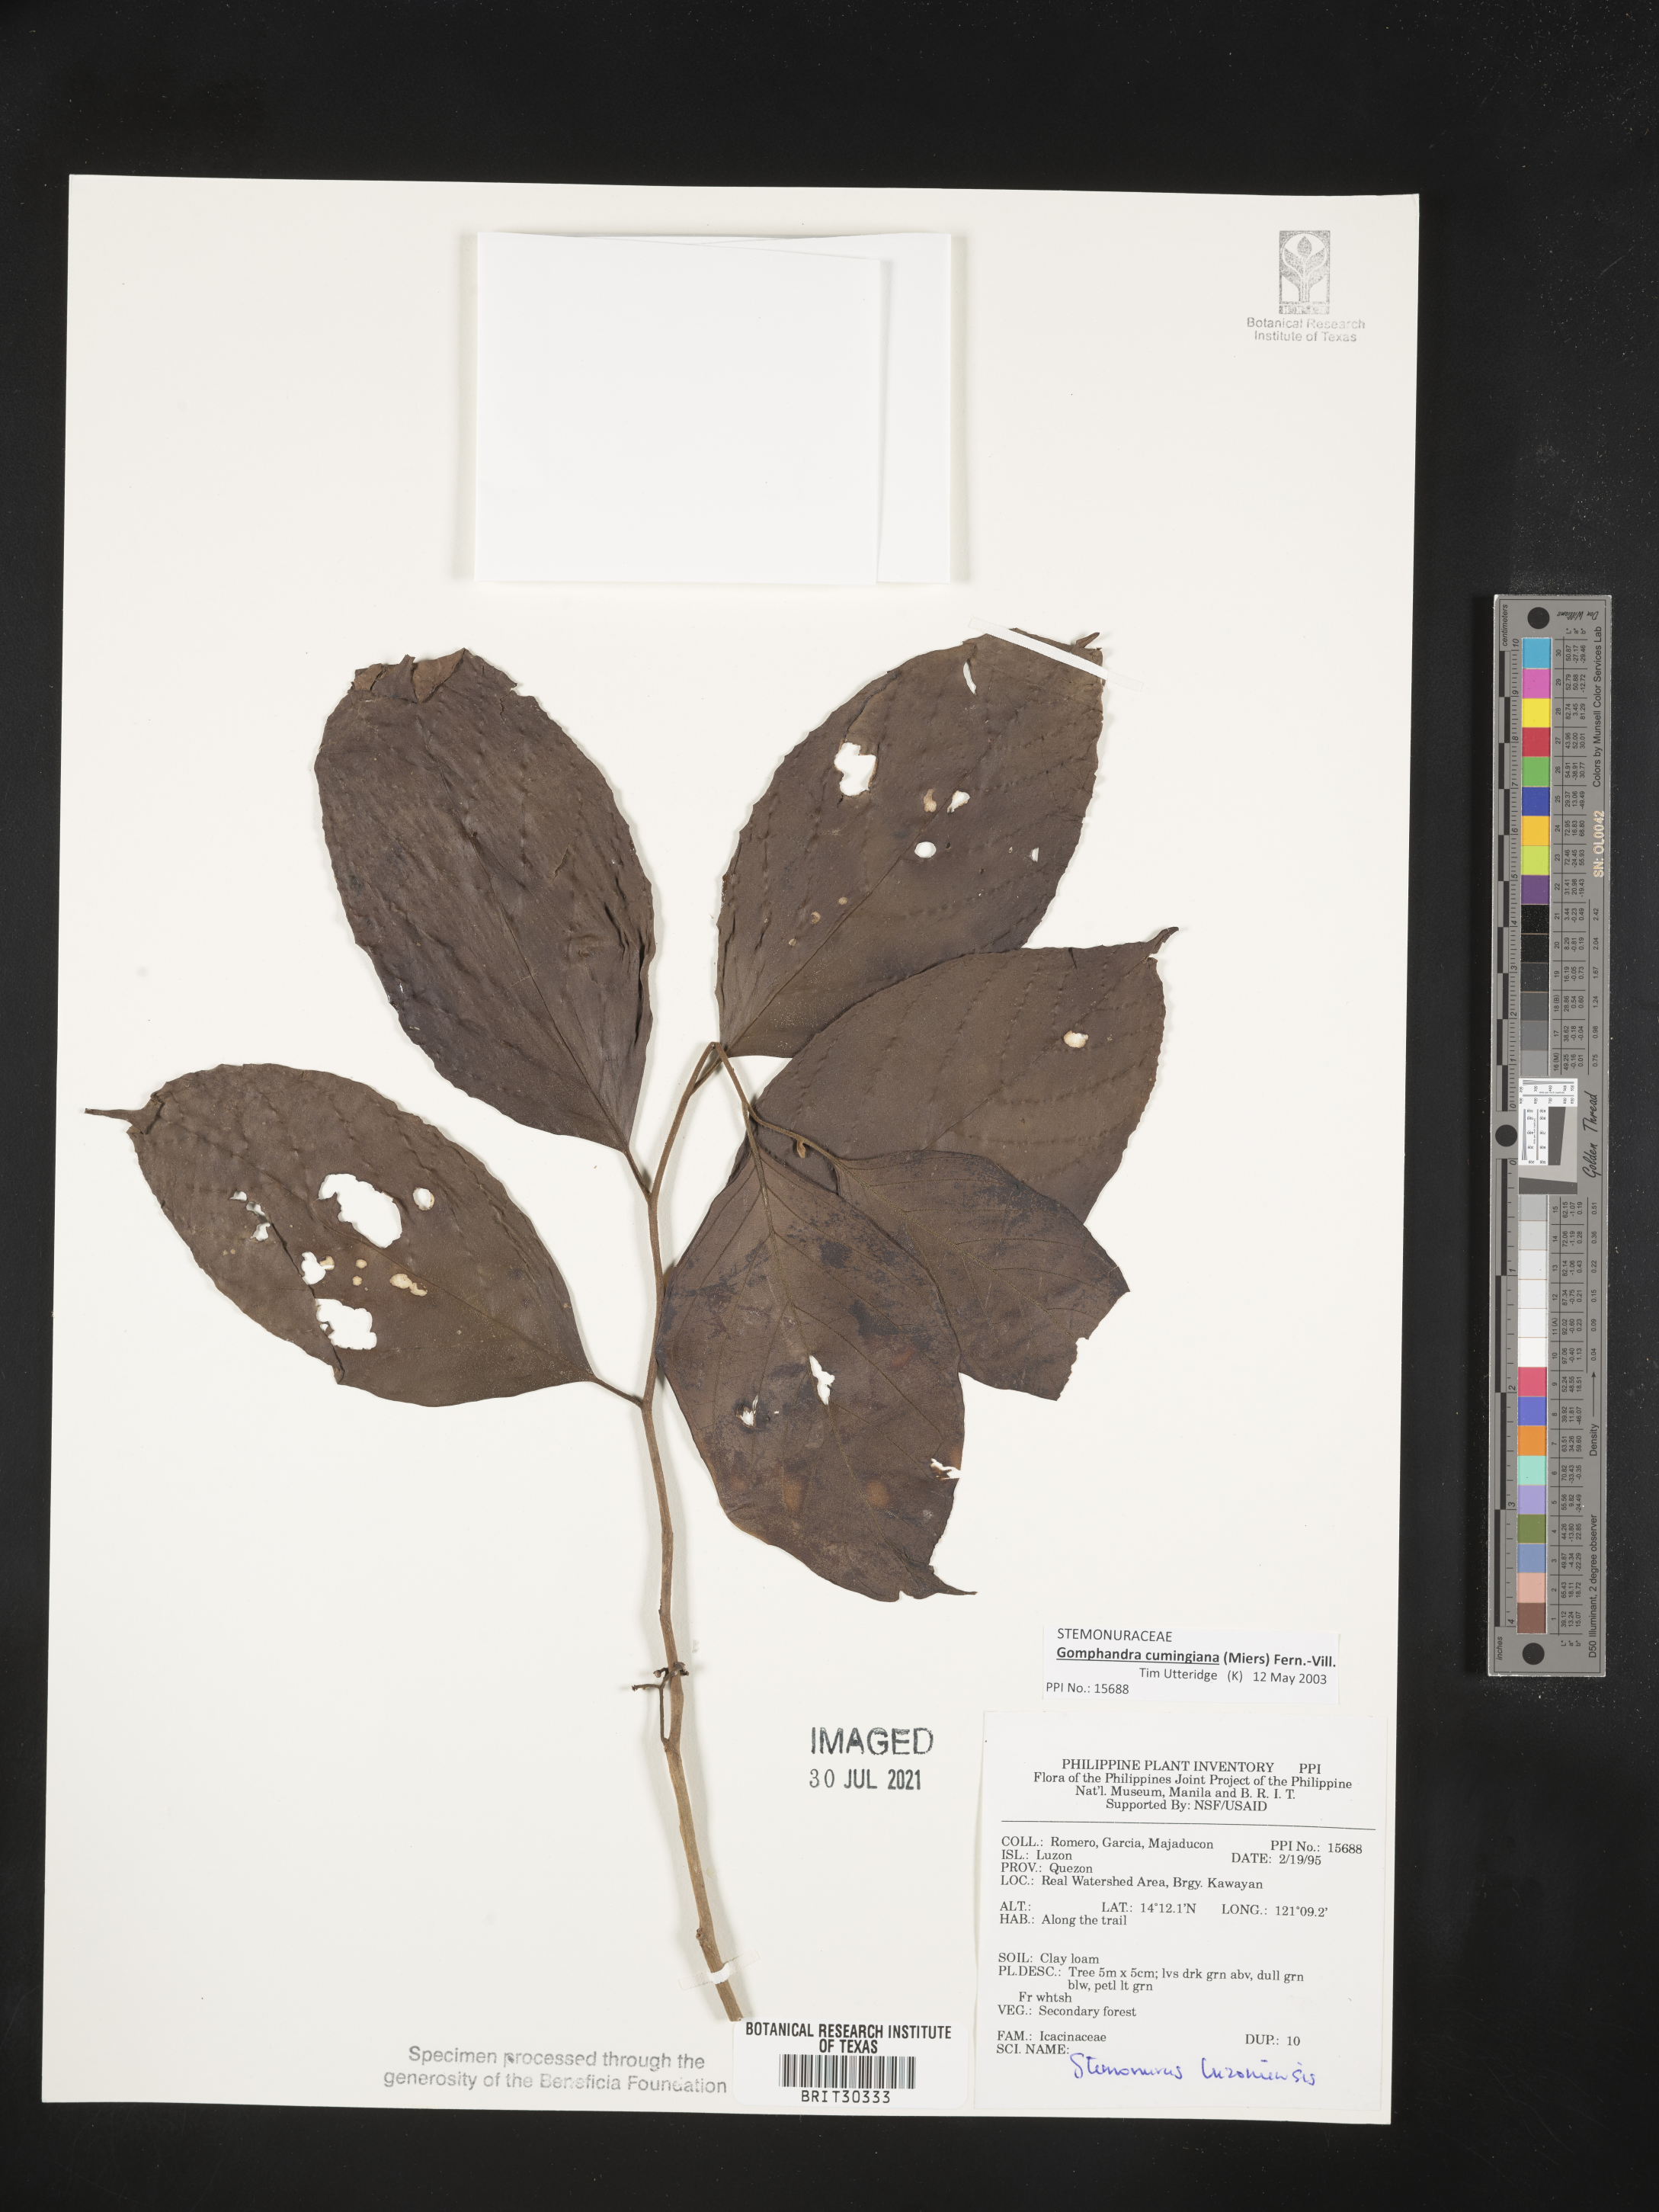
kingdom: Plantae
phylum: Tracheophyta
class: Magnoliopsida
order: Cardiopteridales
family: Stemonuraceae
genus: Gomphandra
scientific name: Gomphandra luzoniensis
